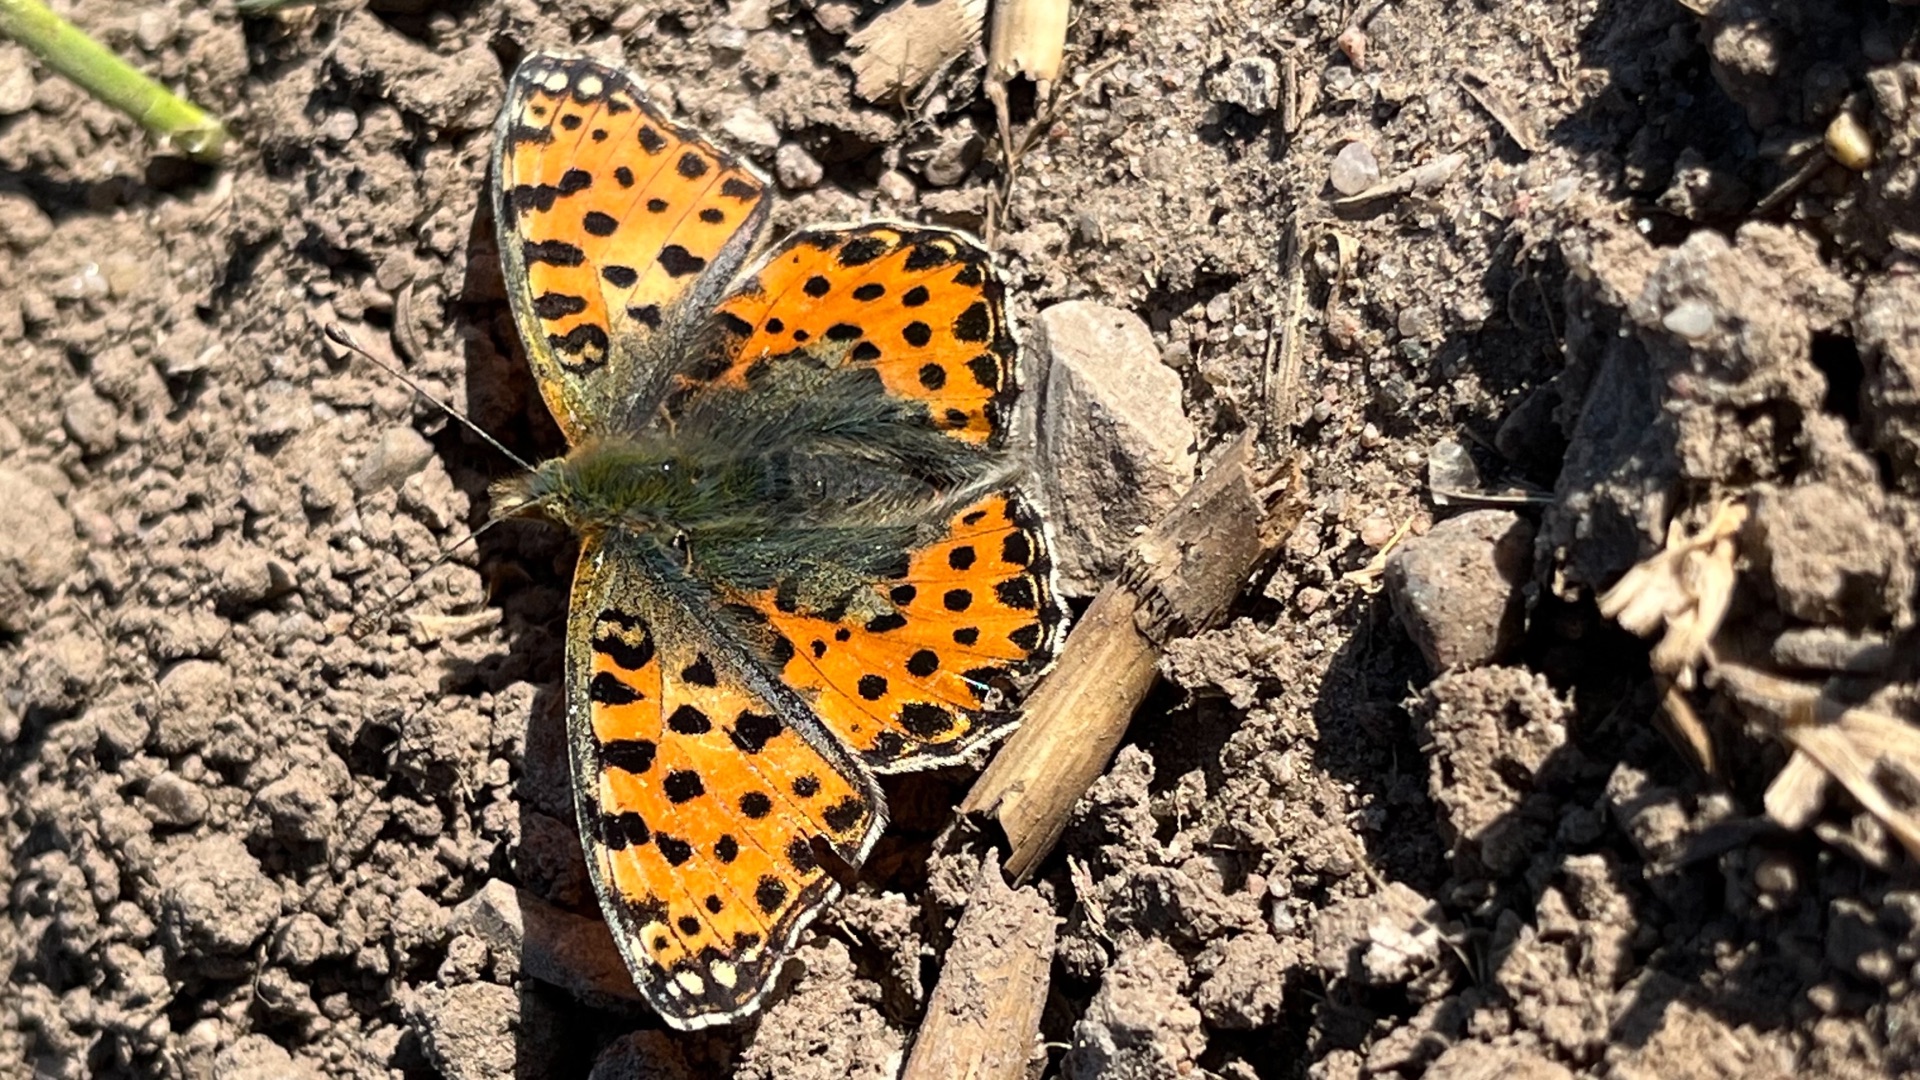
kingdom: Animalia
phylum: Arthropoda
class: Insecta
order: Lepidoptera
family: Nymphalidae
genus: Issoria
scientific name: Issoria lathonia
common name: Storplettet perlemorsommerfugl
